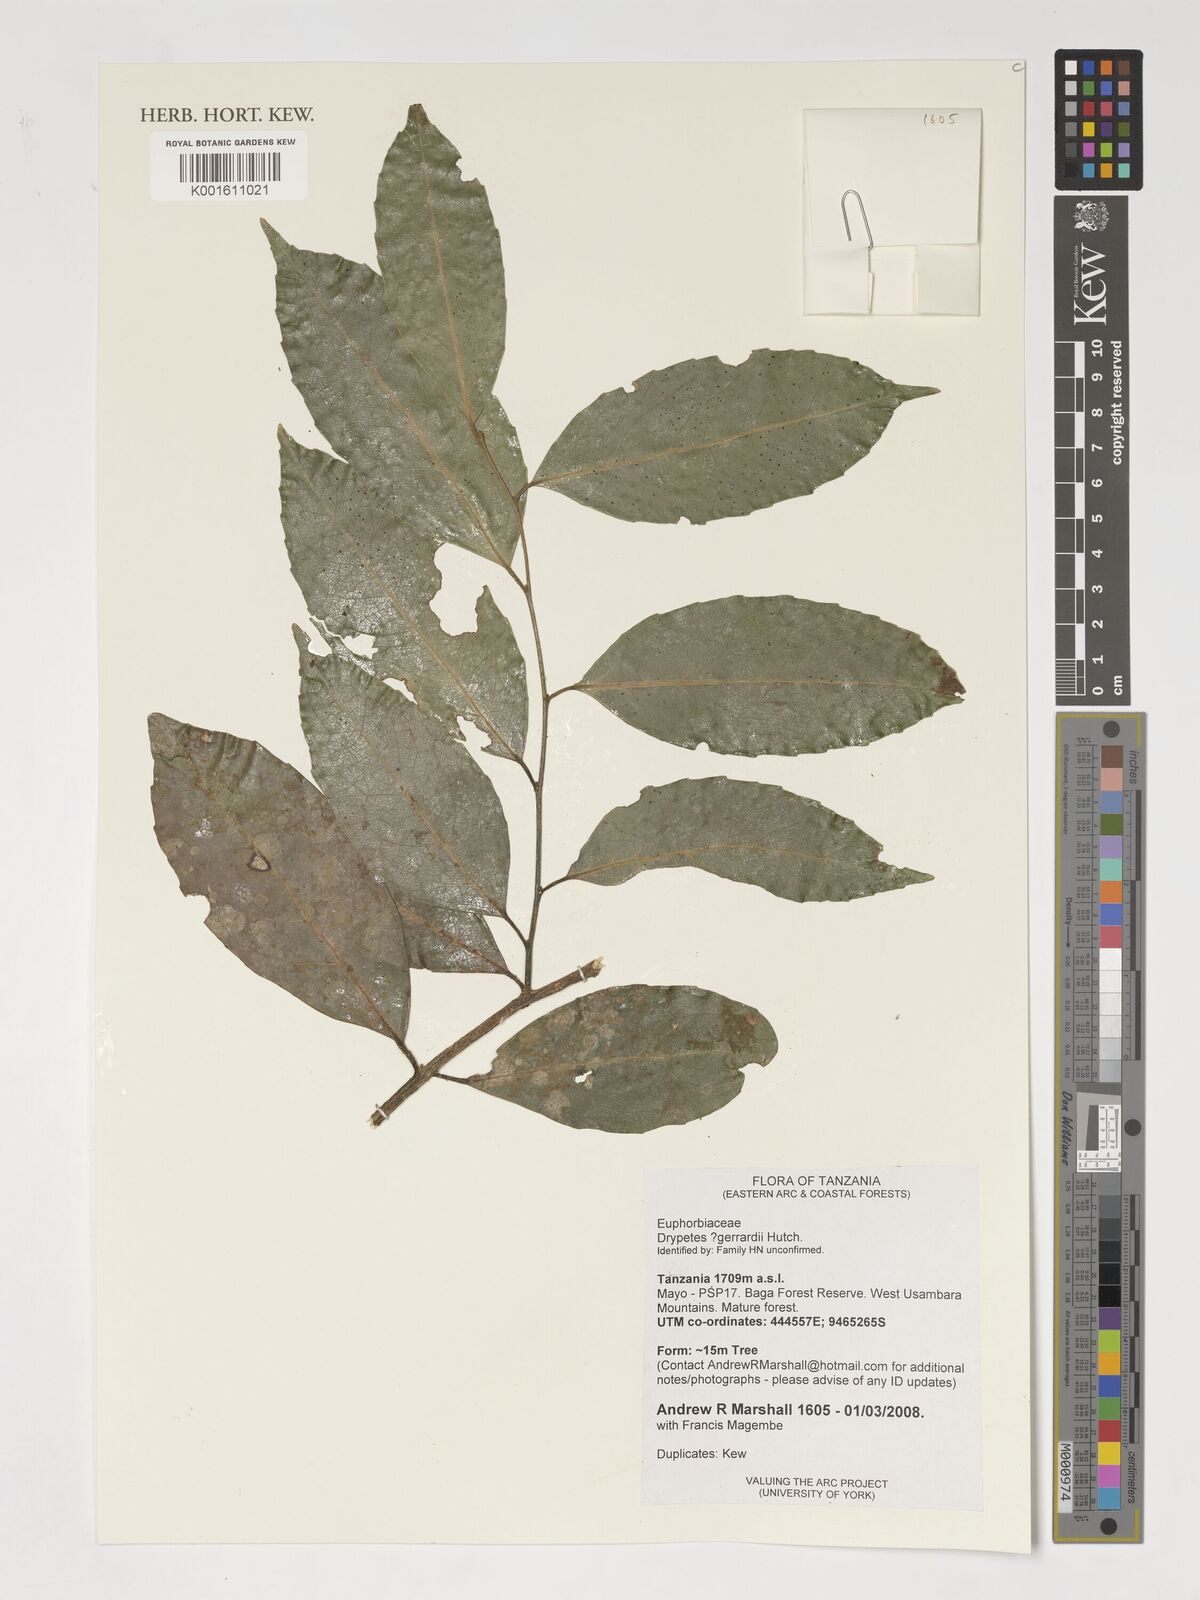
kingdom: Plantae
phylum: Tracheophyta
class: Magnoliopsida
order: Malpighiales
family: Putranjivaceae
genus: Drypetes
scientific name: Drypetes gerrardii
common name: Forest ironplum
